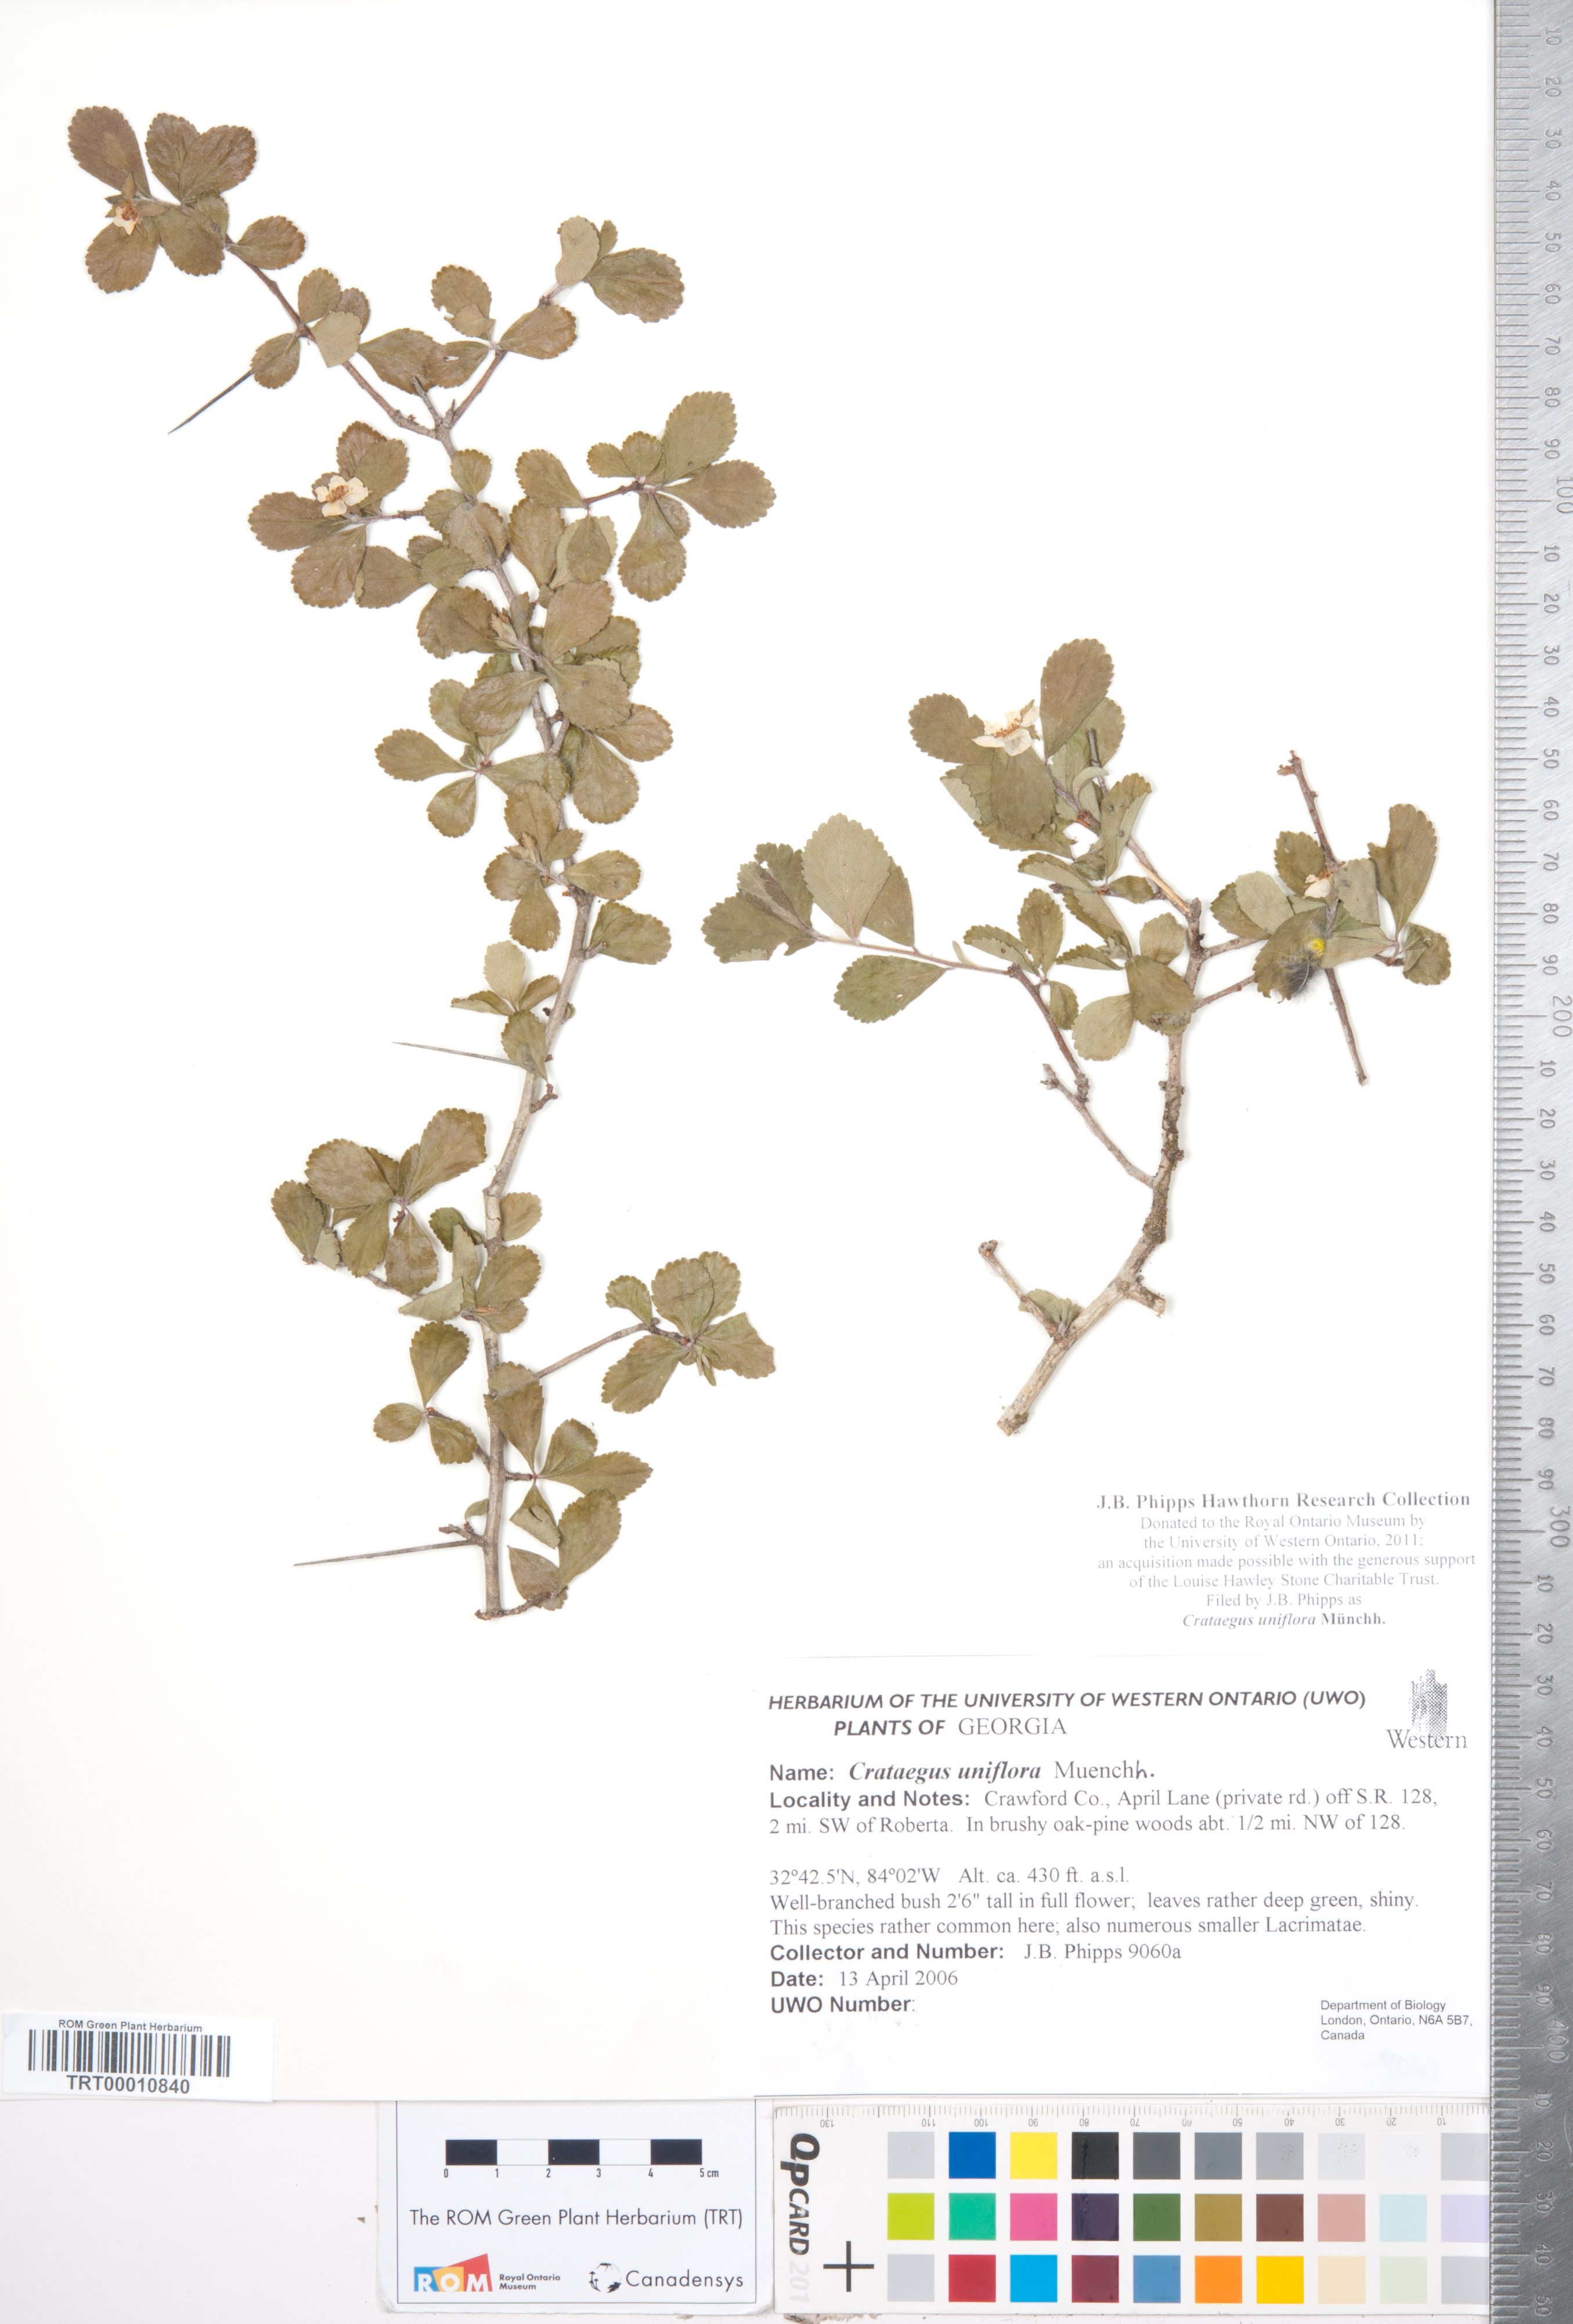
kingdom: Plantae
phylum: Tracheophyta
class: Magnoliopsida
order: Rosales
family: Rosaceae
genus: Crataegus
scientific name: Crataegus uniflora
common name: One-flower hawthorn
